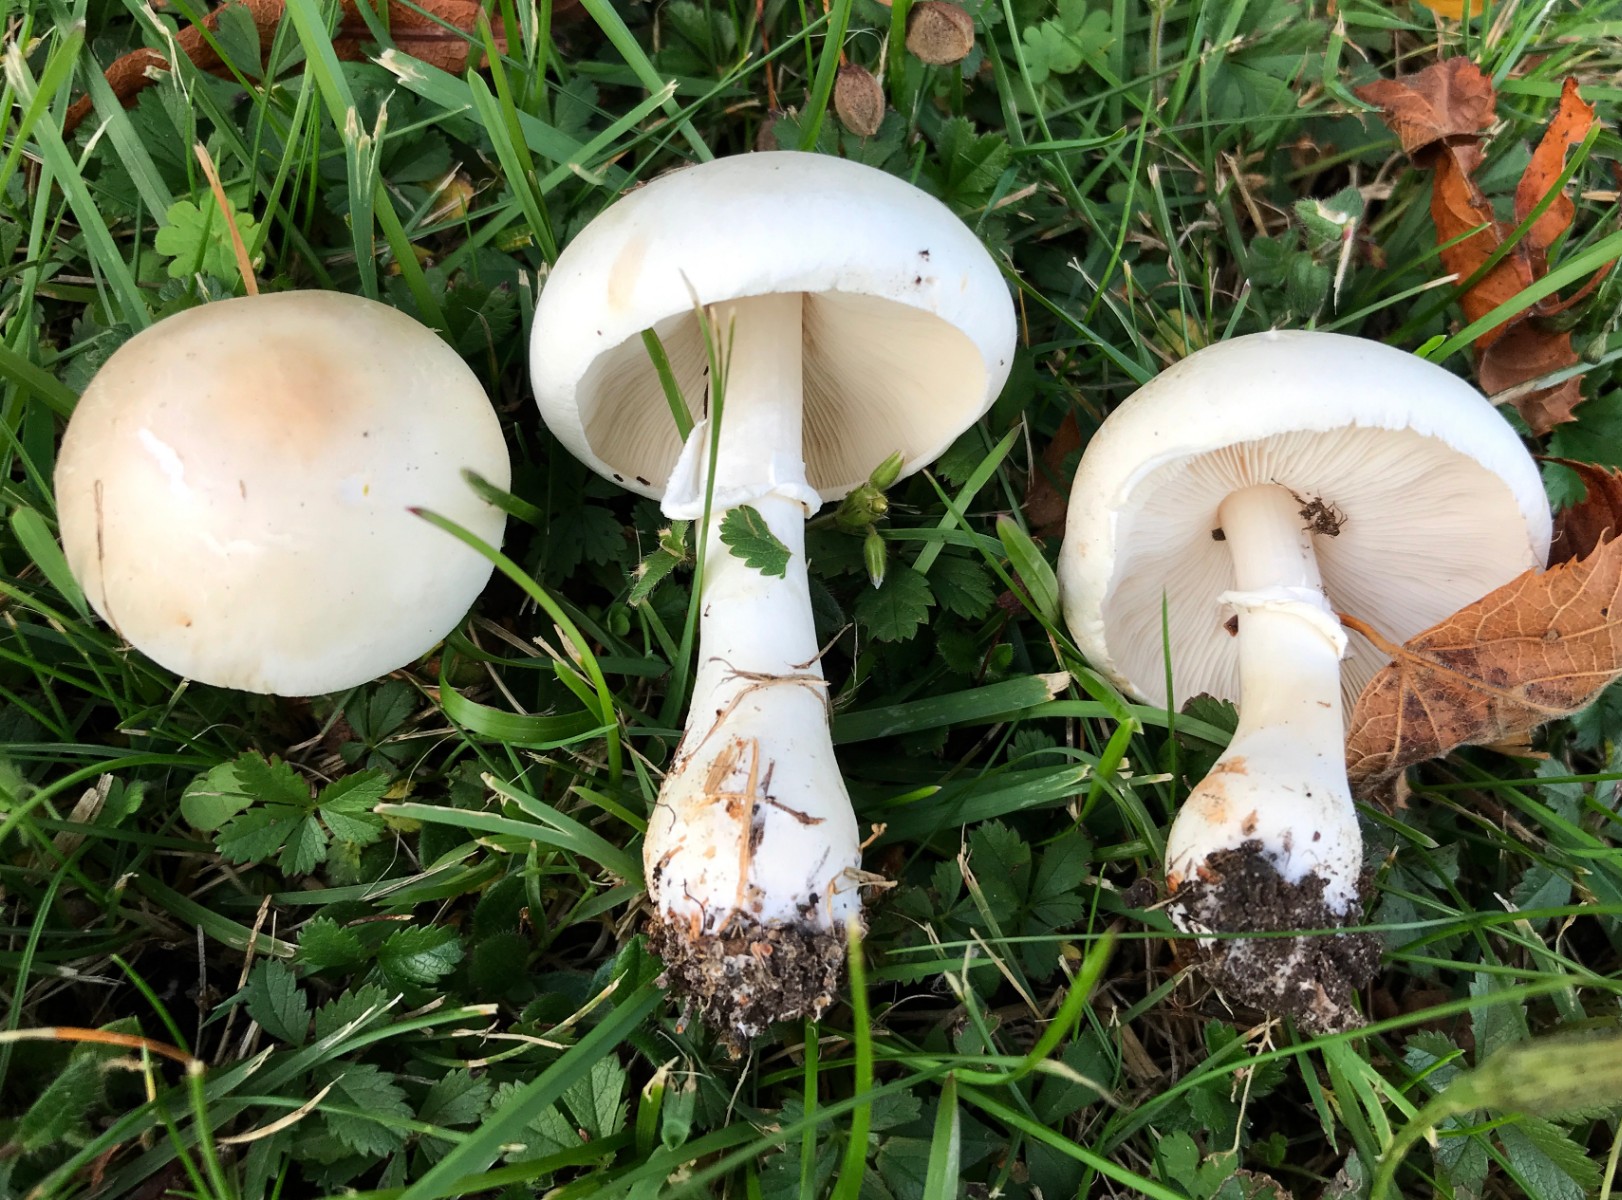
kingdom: Fungi
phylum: Basidiomycota
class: Agaricomycetes
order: Agaricales
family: Agaricaceae
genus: Leucoagaricus
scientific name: Leucoagaricus leucothites
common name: rosabladet silkehat
